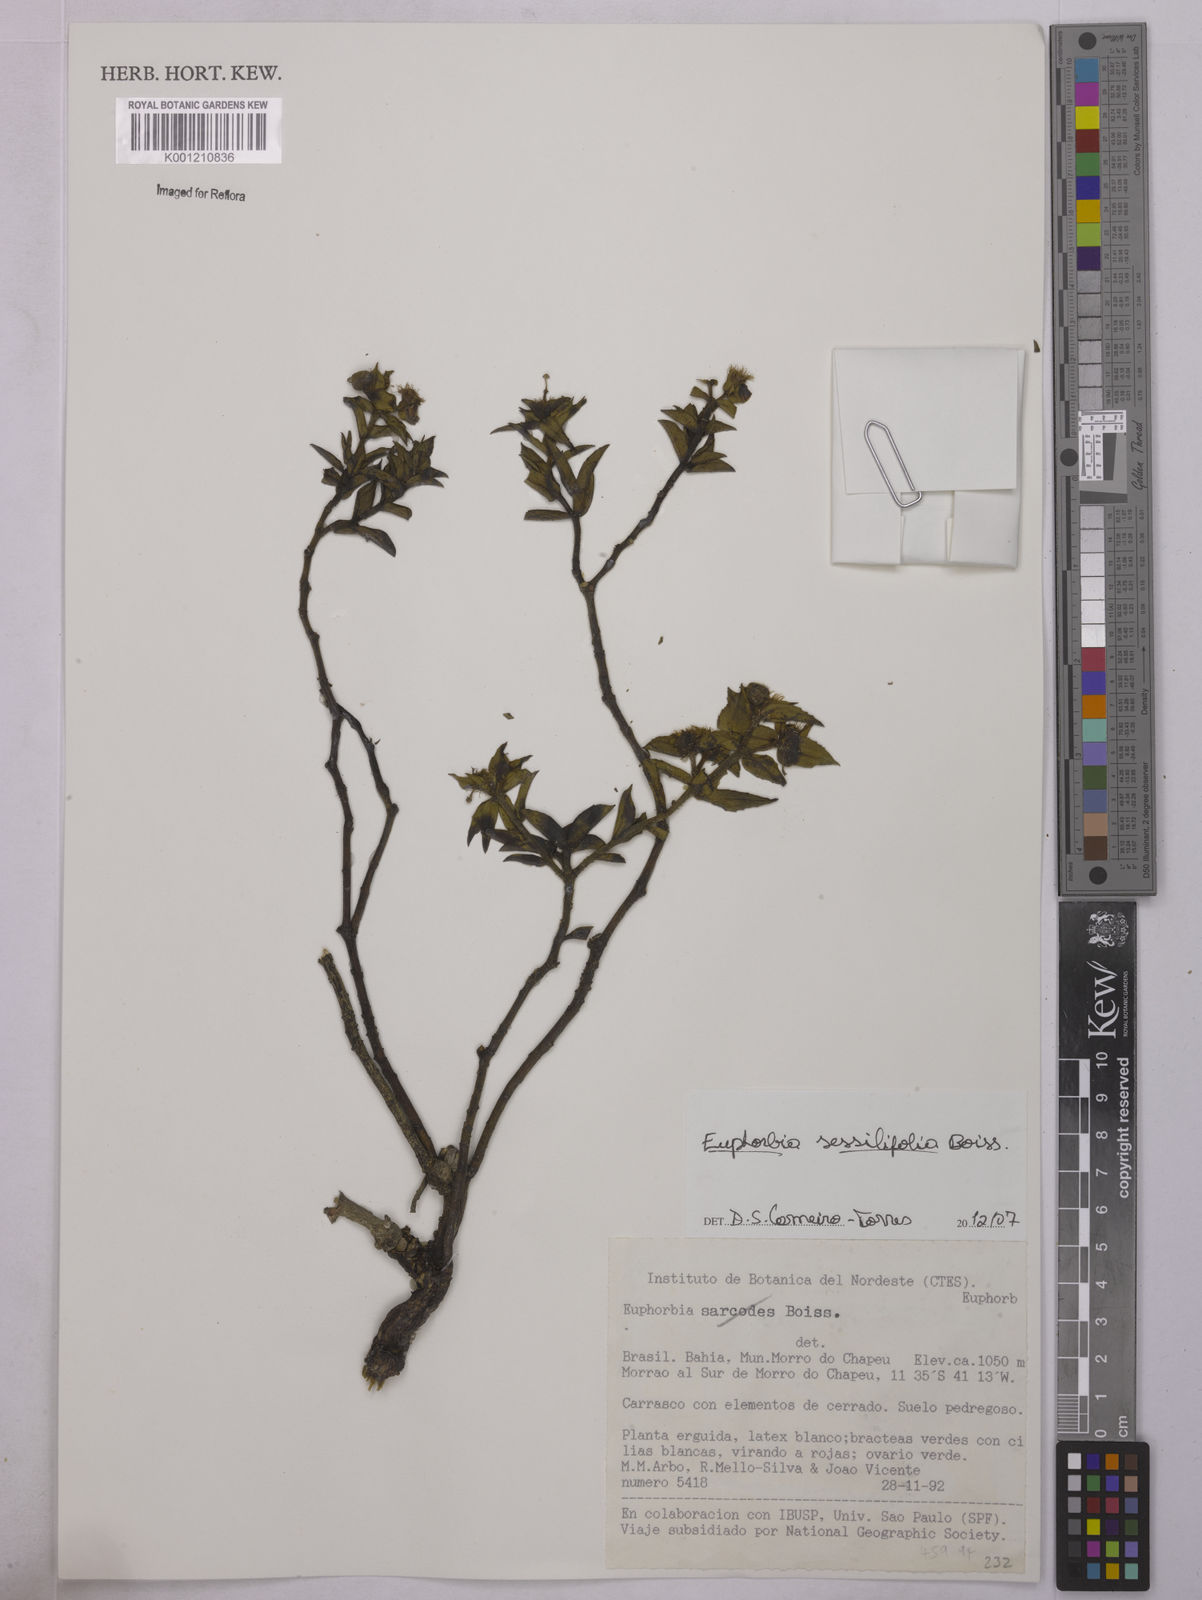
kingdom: Plantae
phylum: Tracheophyta
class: Magnoliopsida
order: Malpighiales
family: Euphorbiaceae
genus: Euphorbia
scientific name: Euphorbia sessilifolia
